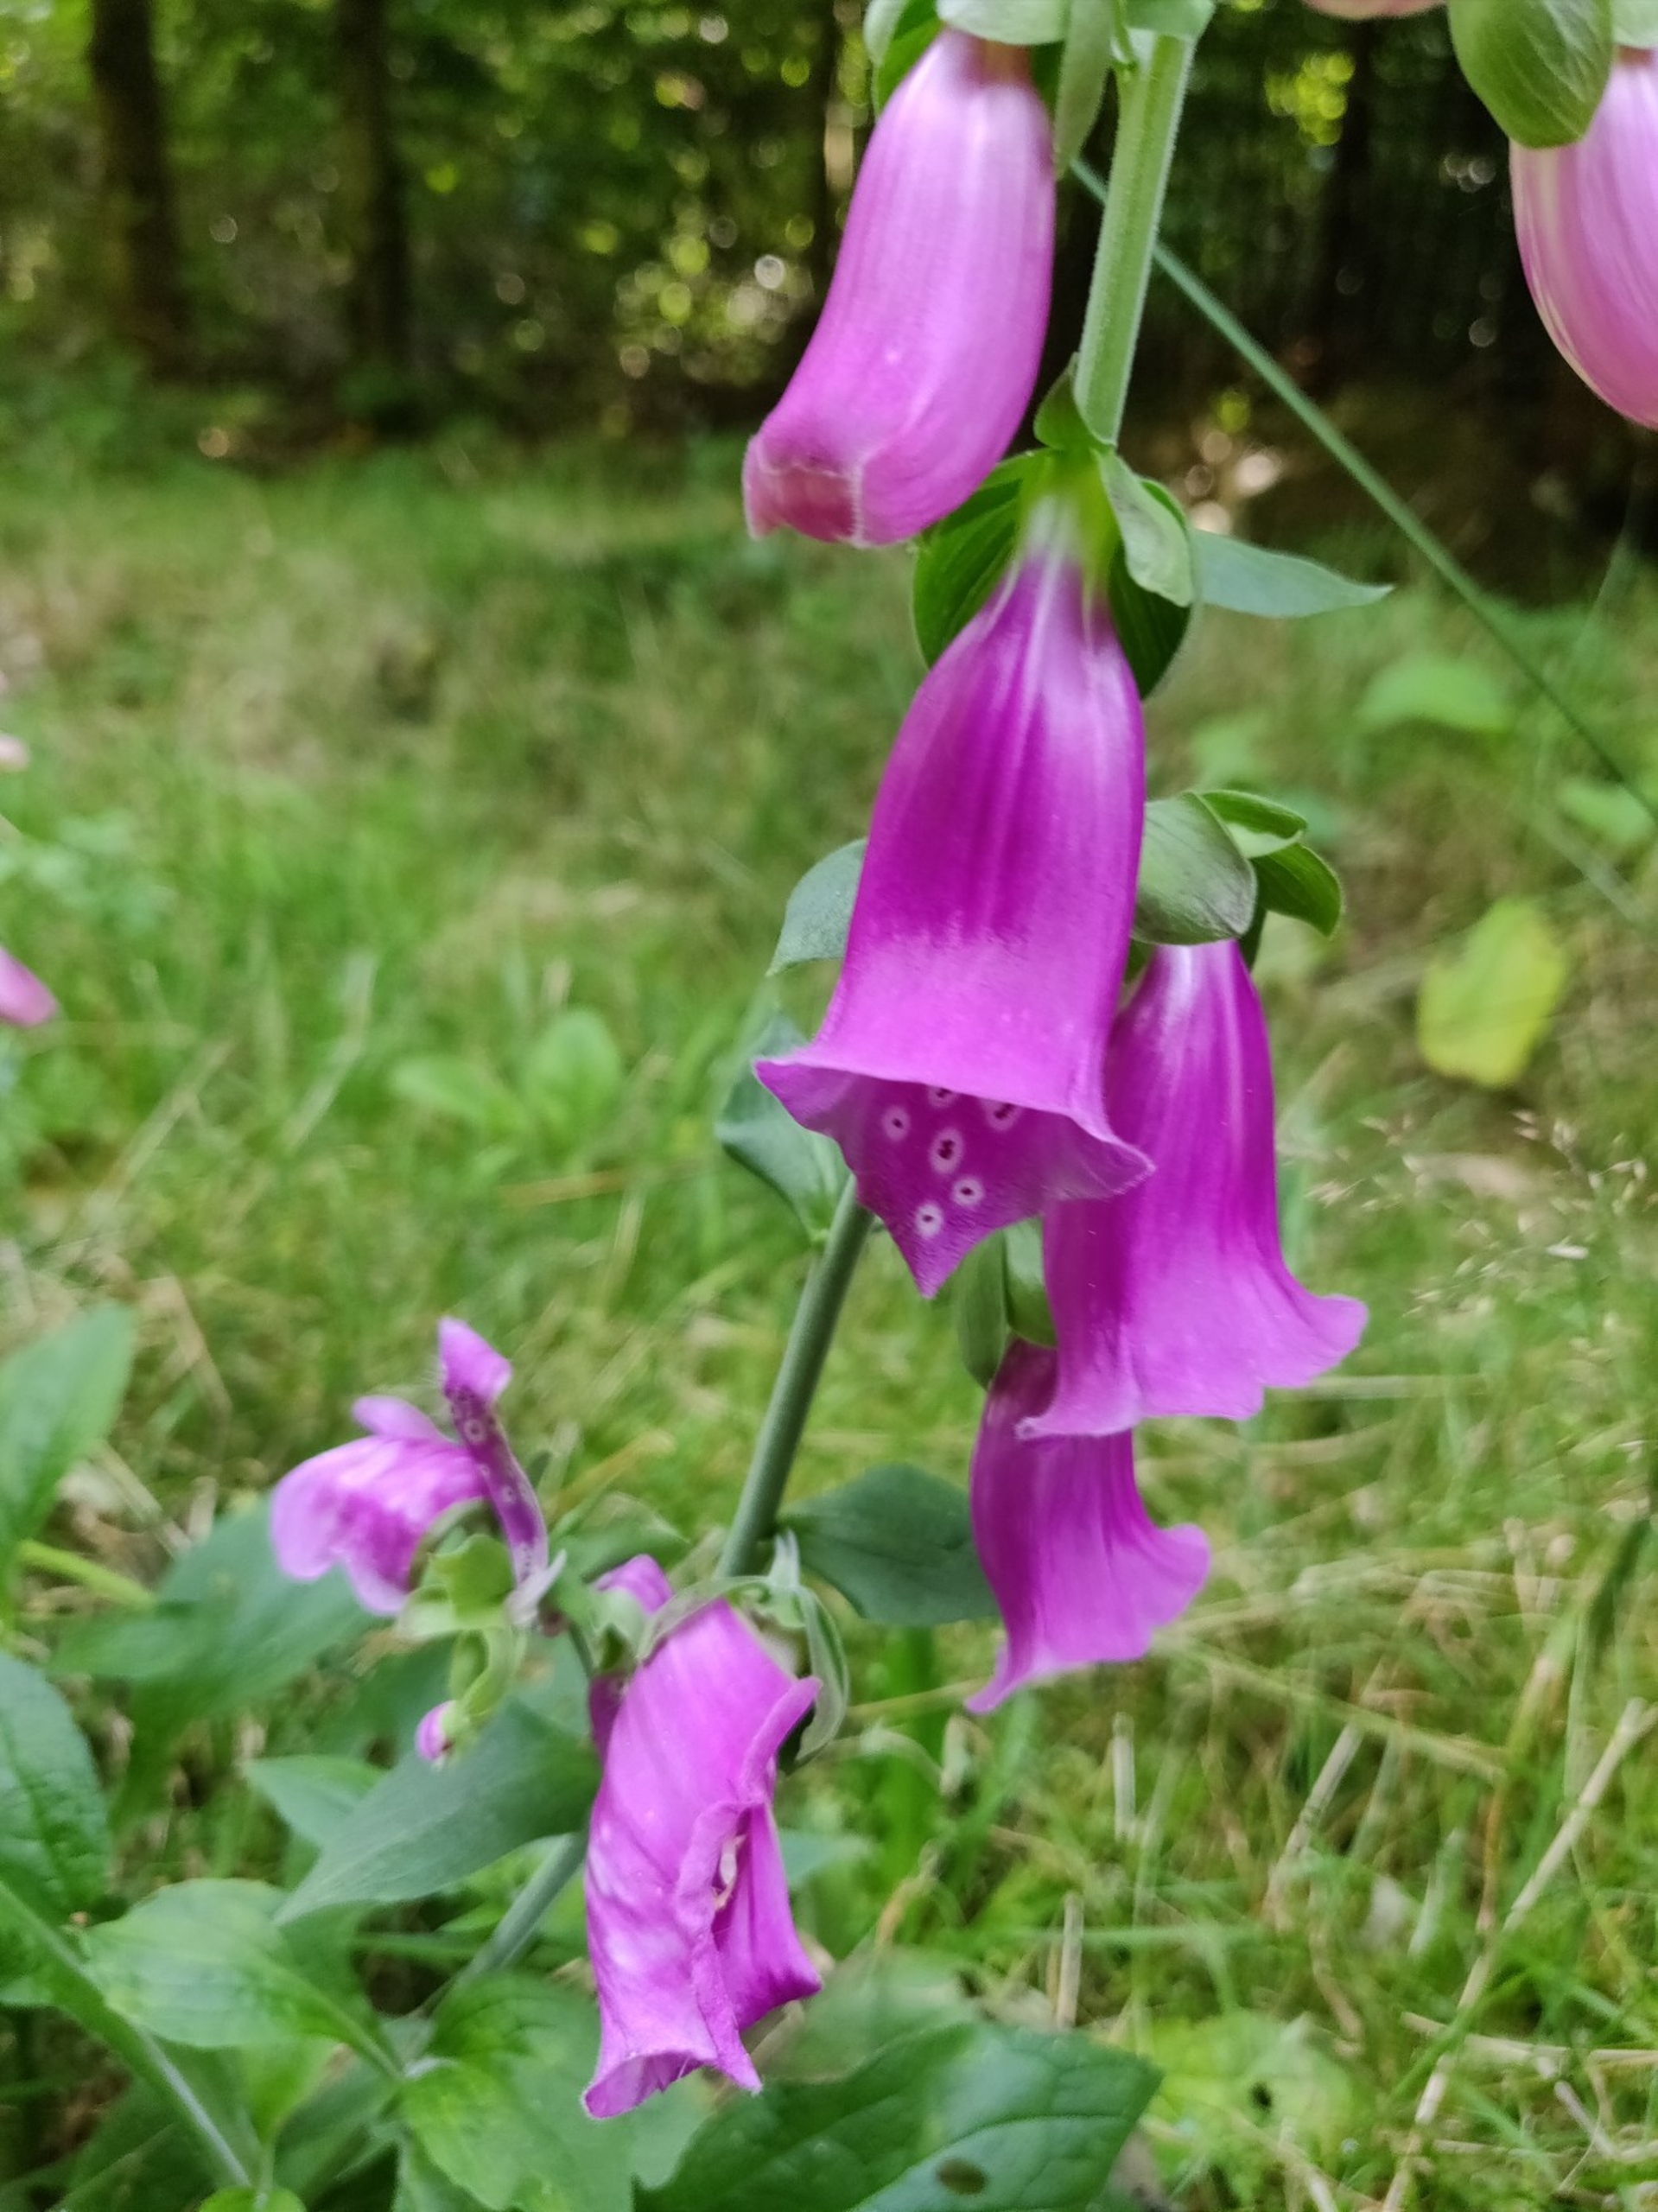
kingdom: Plantae
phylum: Tracheophyta
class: Magnoliopsida
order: Lamiales
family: Plantaginaceae
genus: Digitalis
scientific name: Digitalis purpurea
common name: Almindelig fingerbøl
